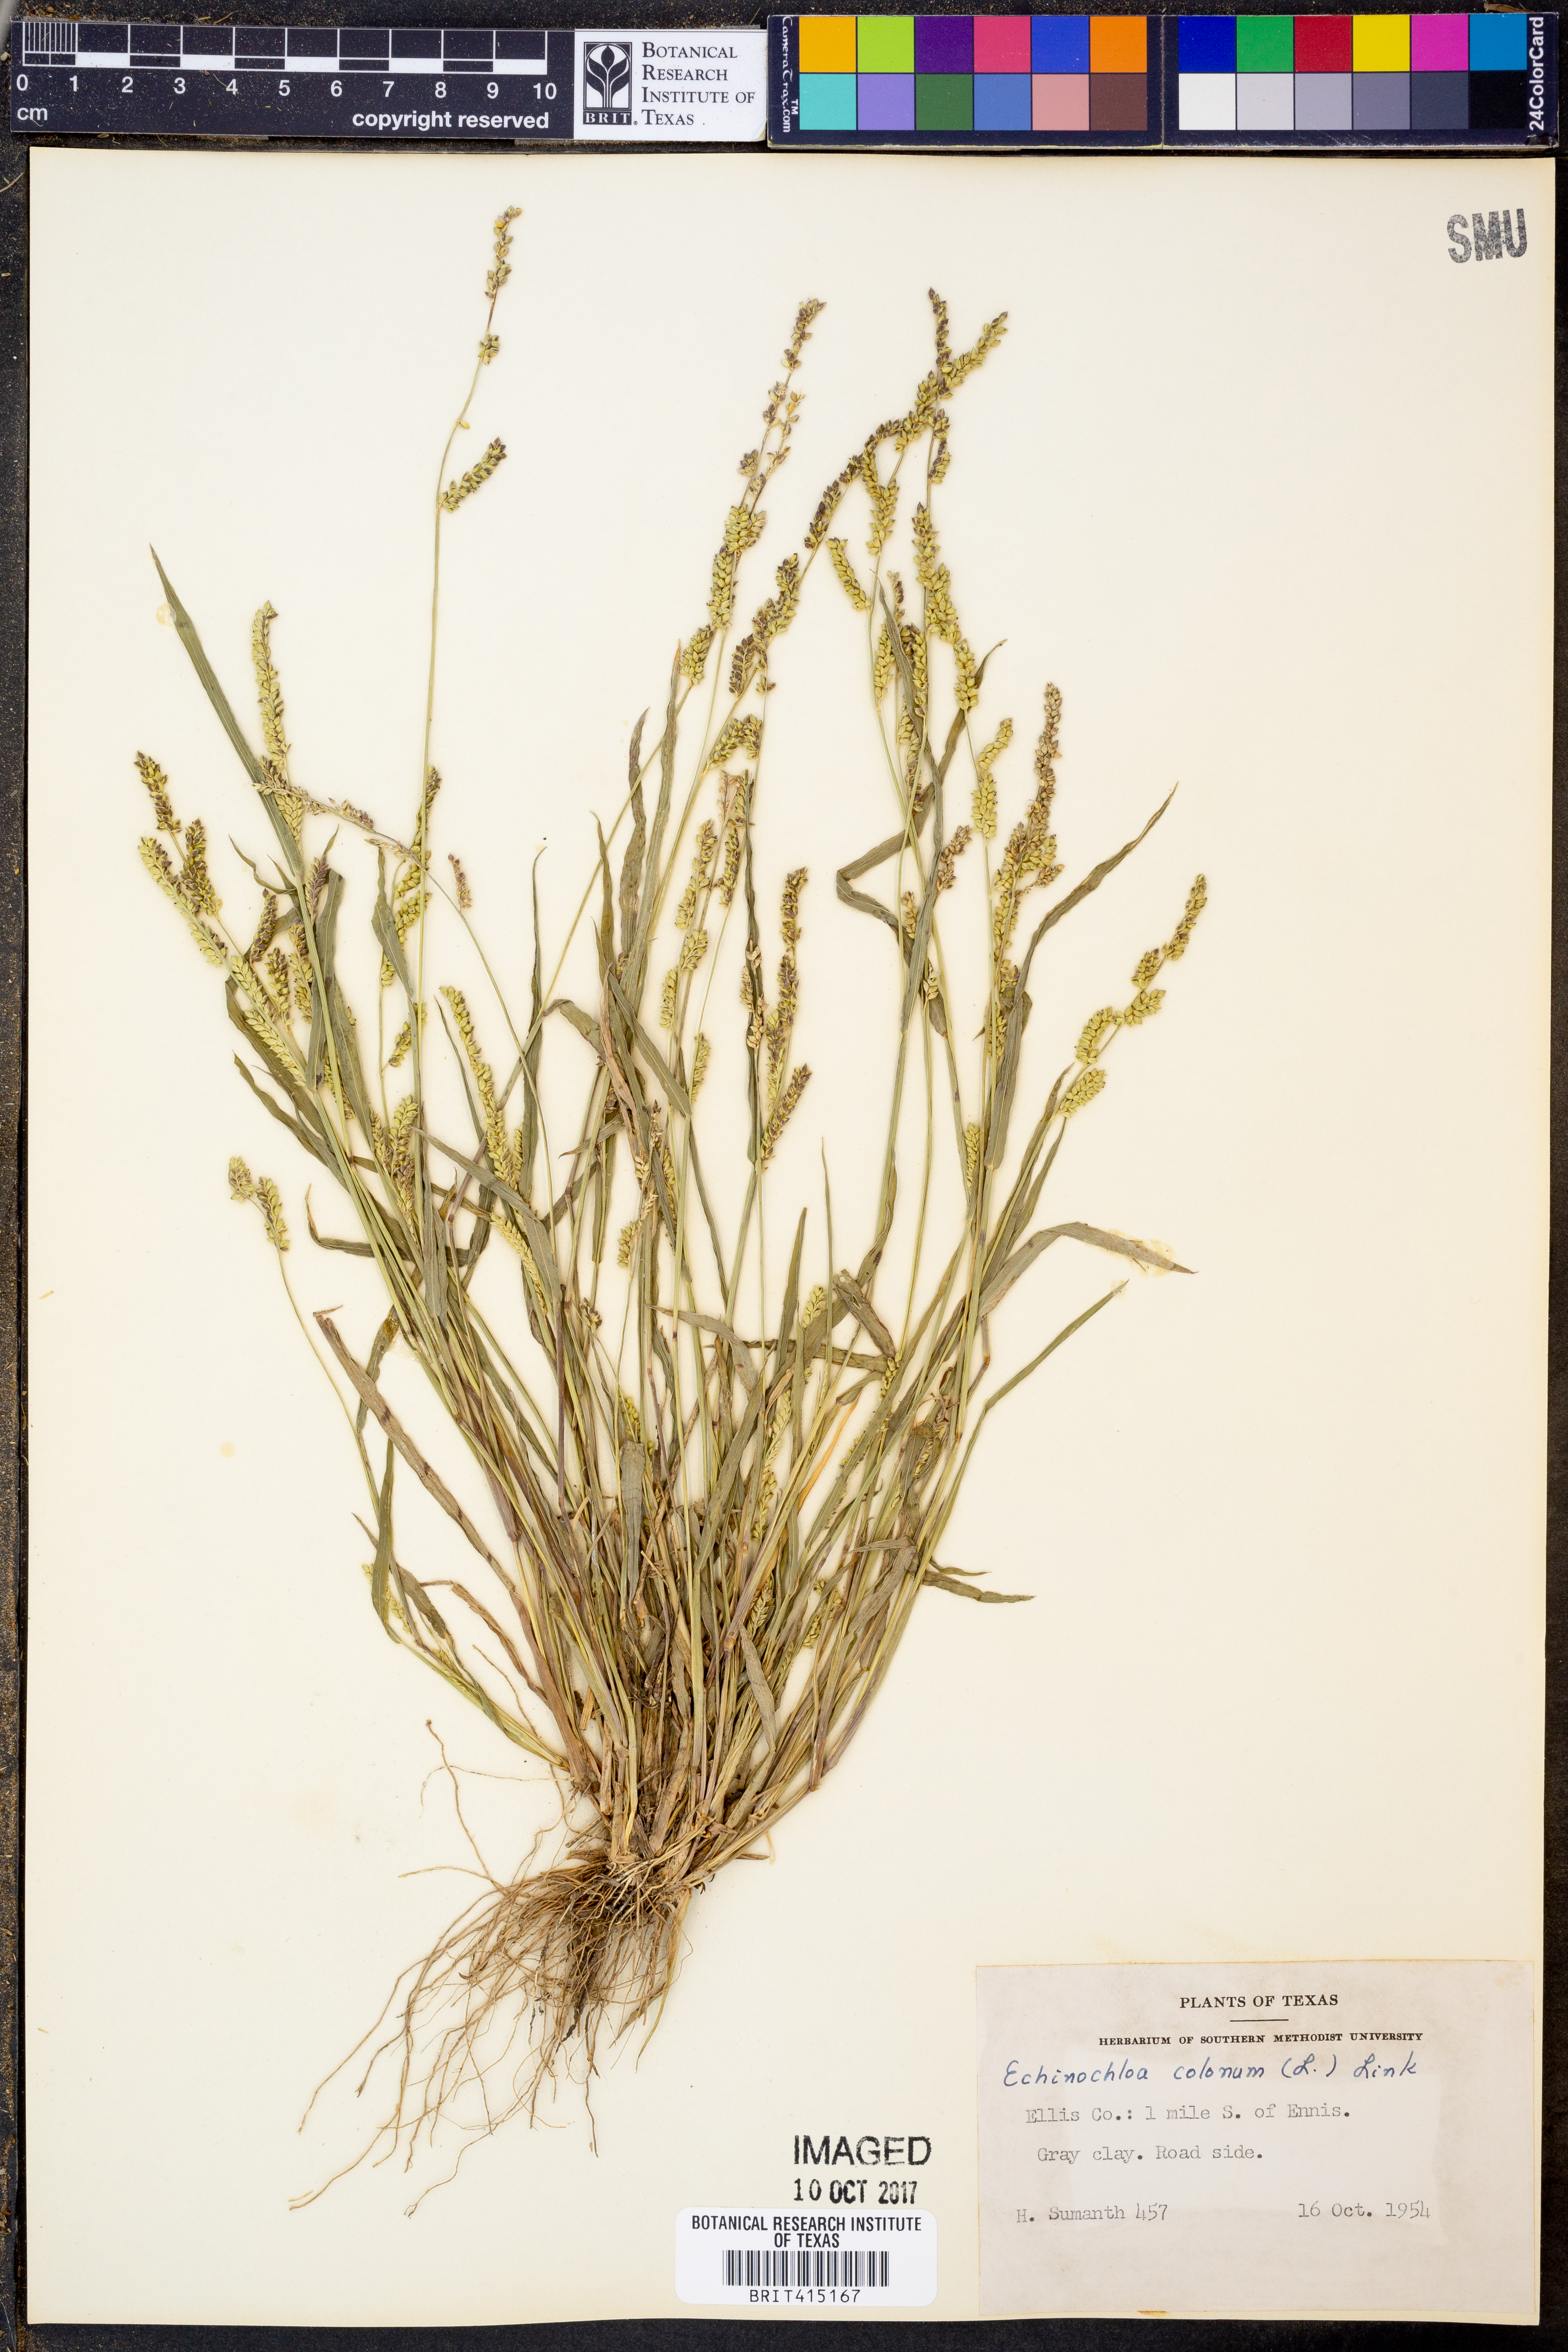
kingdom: Plantae
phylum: Tracheophyta
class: Liliopsida
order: Poales
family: Poaceae
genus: Echinochloa
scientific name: Echinochloa colonum
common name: Jungle rice
